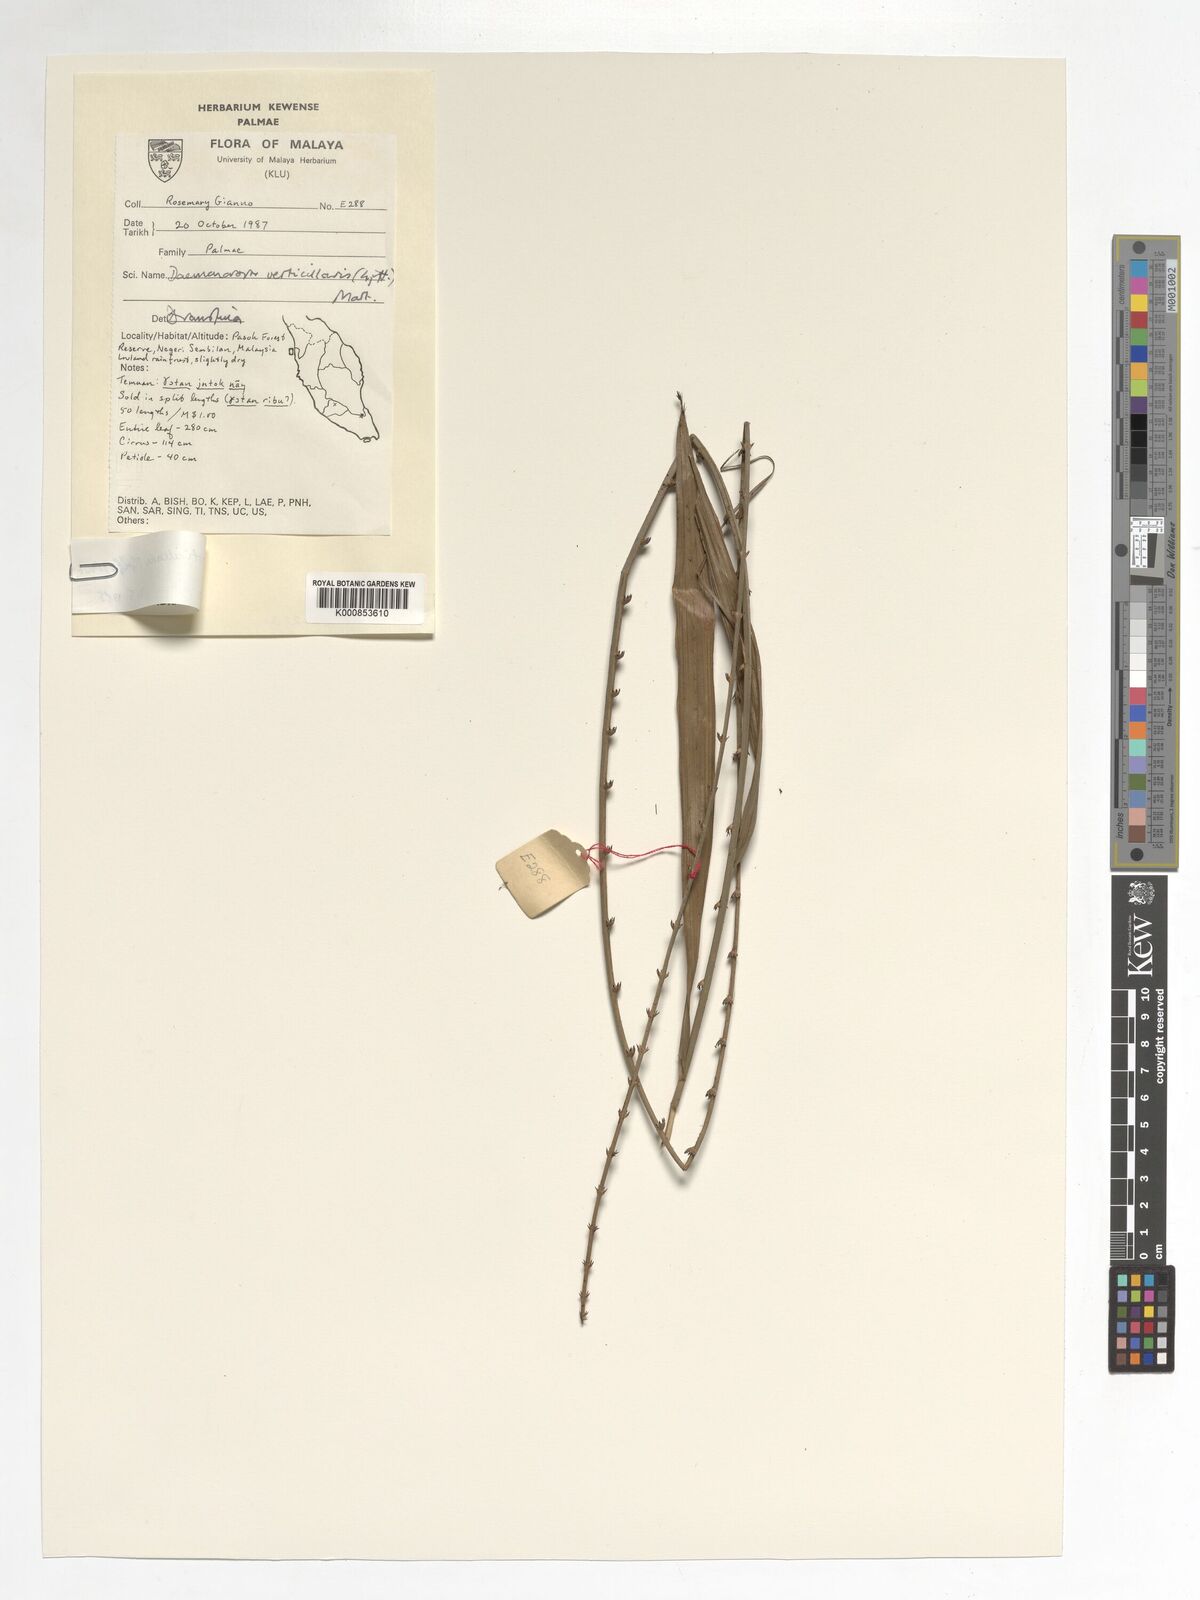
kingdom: Plantae
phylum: Tracheophyta
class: Liliopsida
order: Arecales
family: Arecaceae
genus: Calamus
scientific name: Calamus verticillaris
